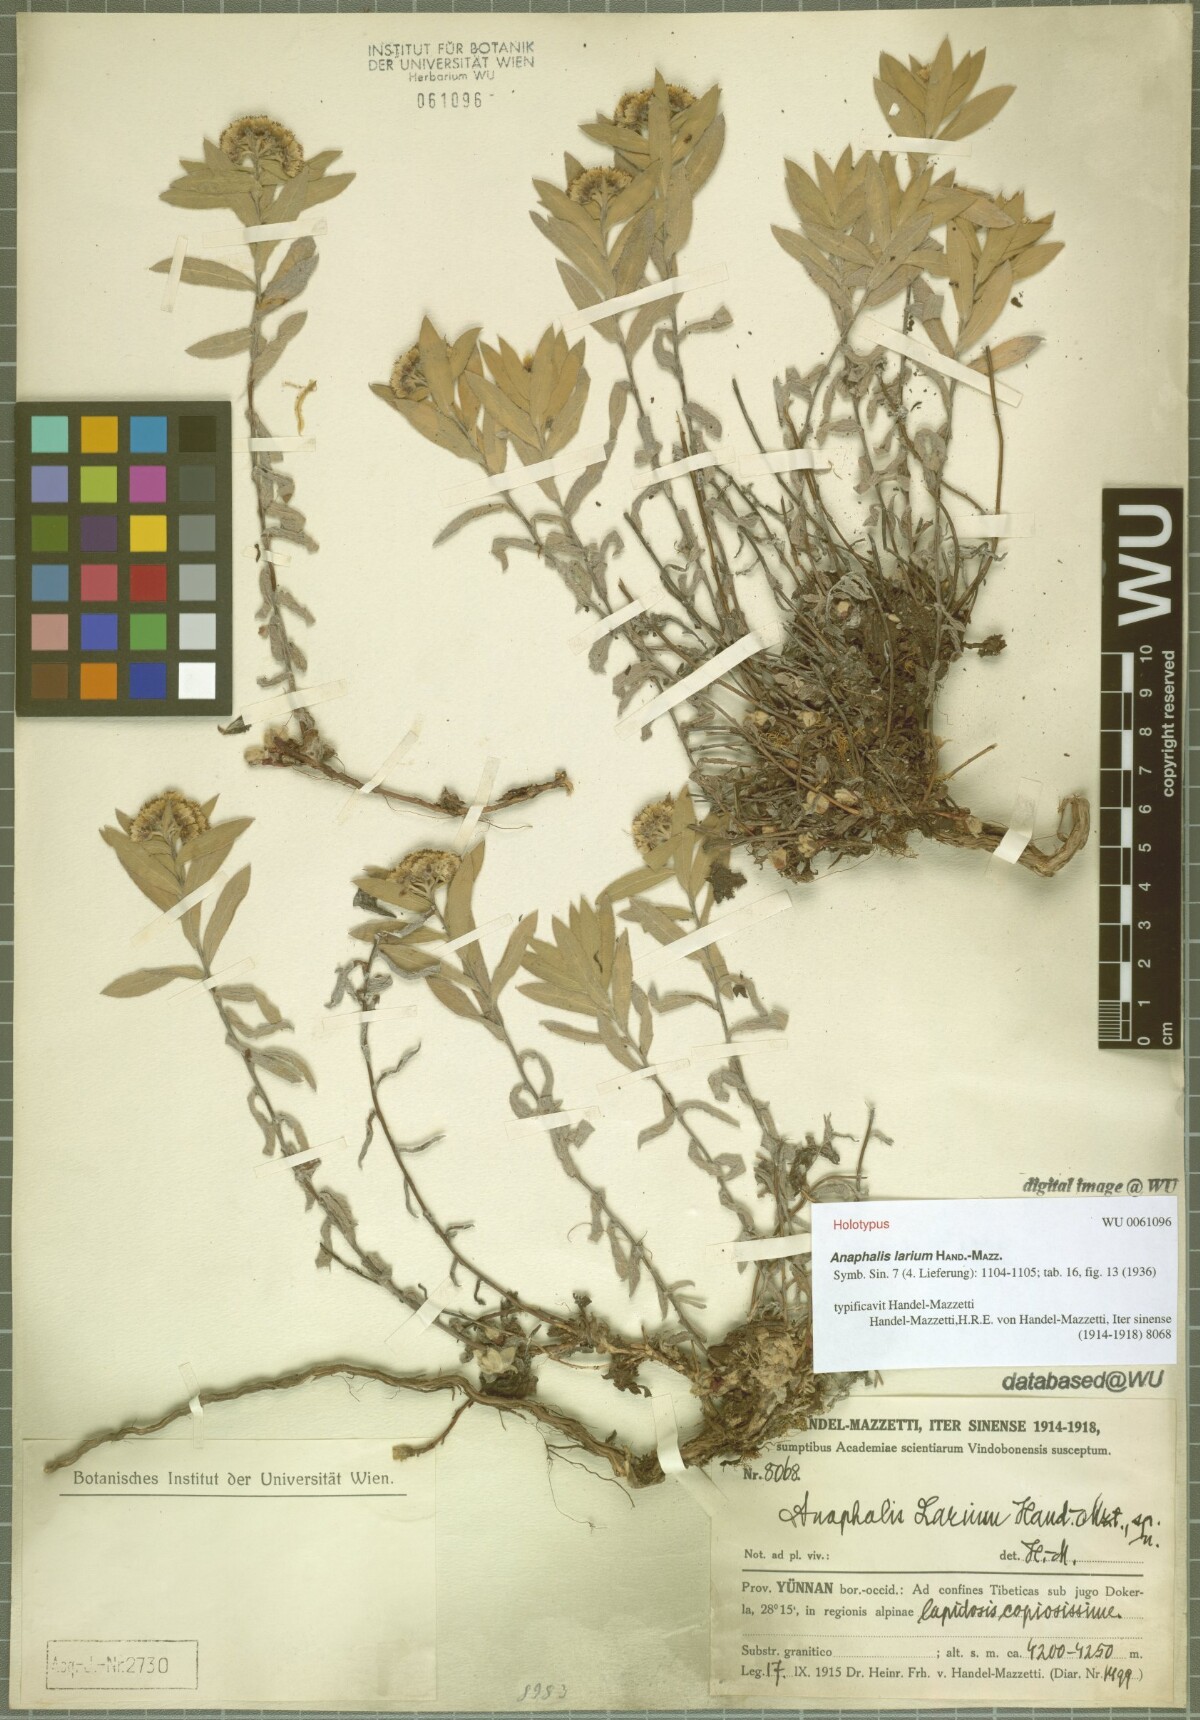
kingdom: Plantae
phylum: Tracheophyta
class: Magnoliopsida
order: Asterales
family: Asteraceae
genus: Anaphalis
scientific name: Anaphalis larium
